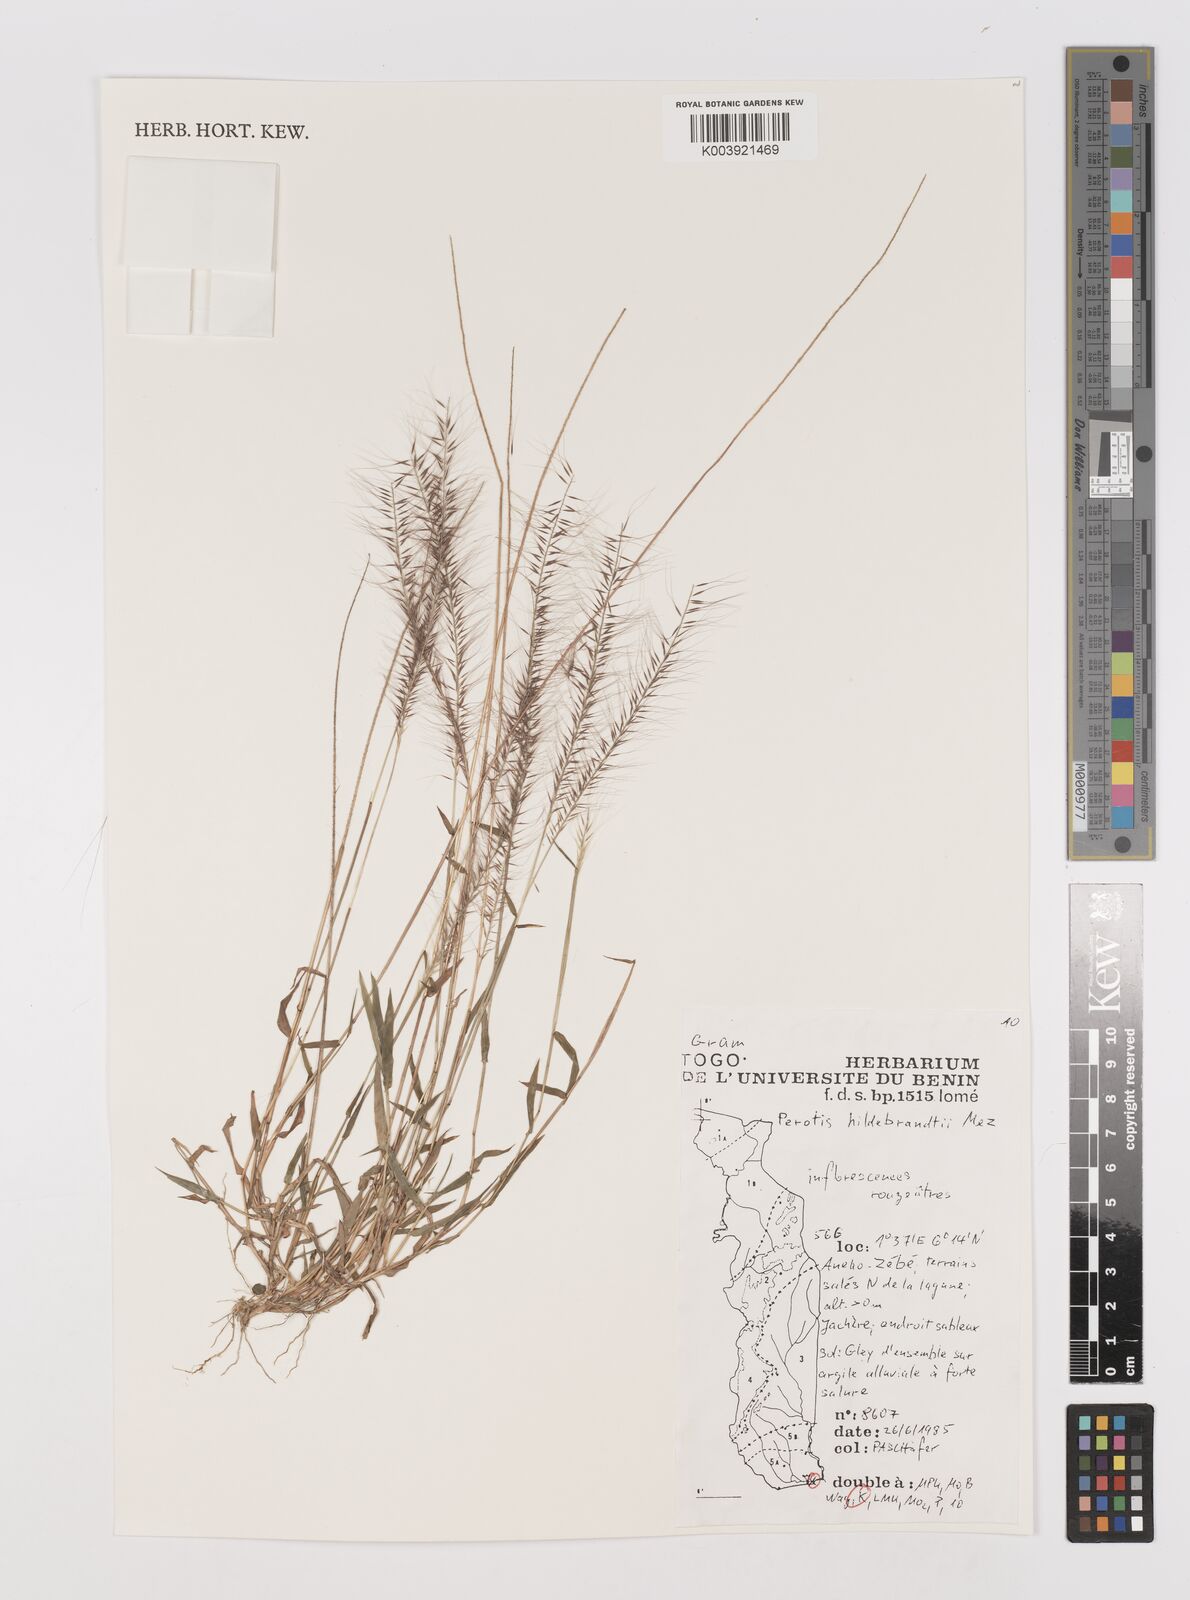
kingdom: Plantae
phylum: Tracheophyta
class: Liliopsida
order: Poales
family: Poaceae
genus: Perotis
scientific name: Perotis hildebrandtii
